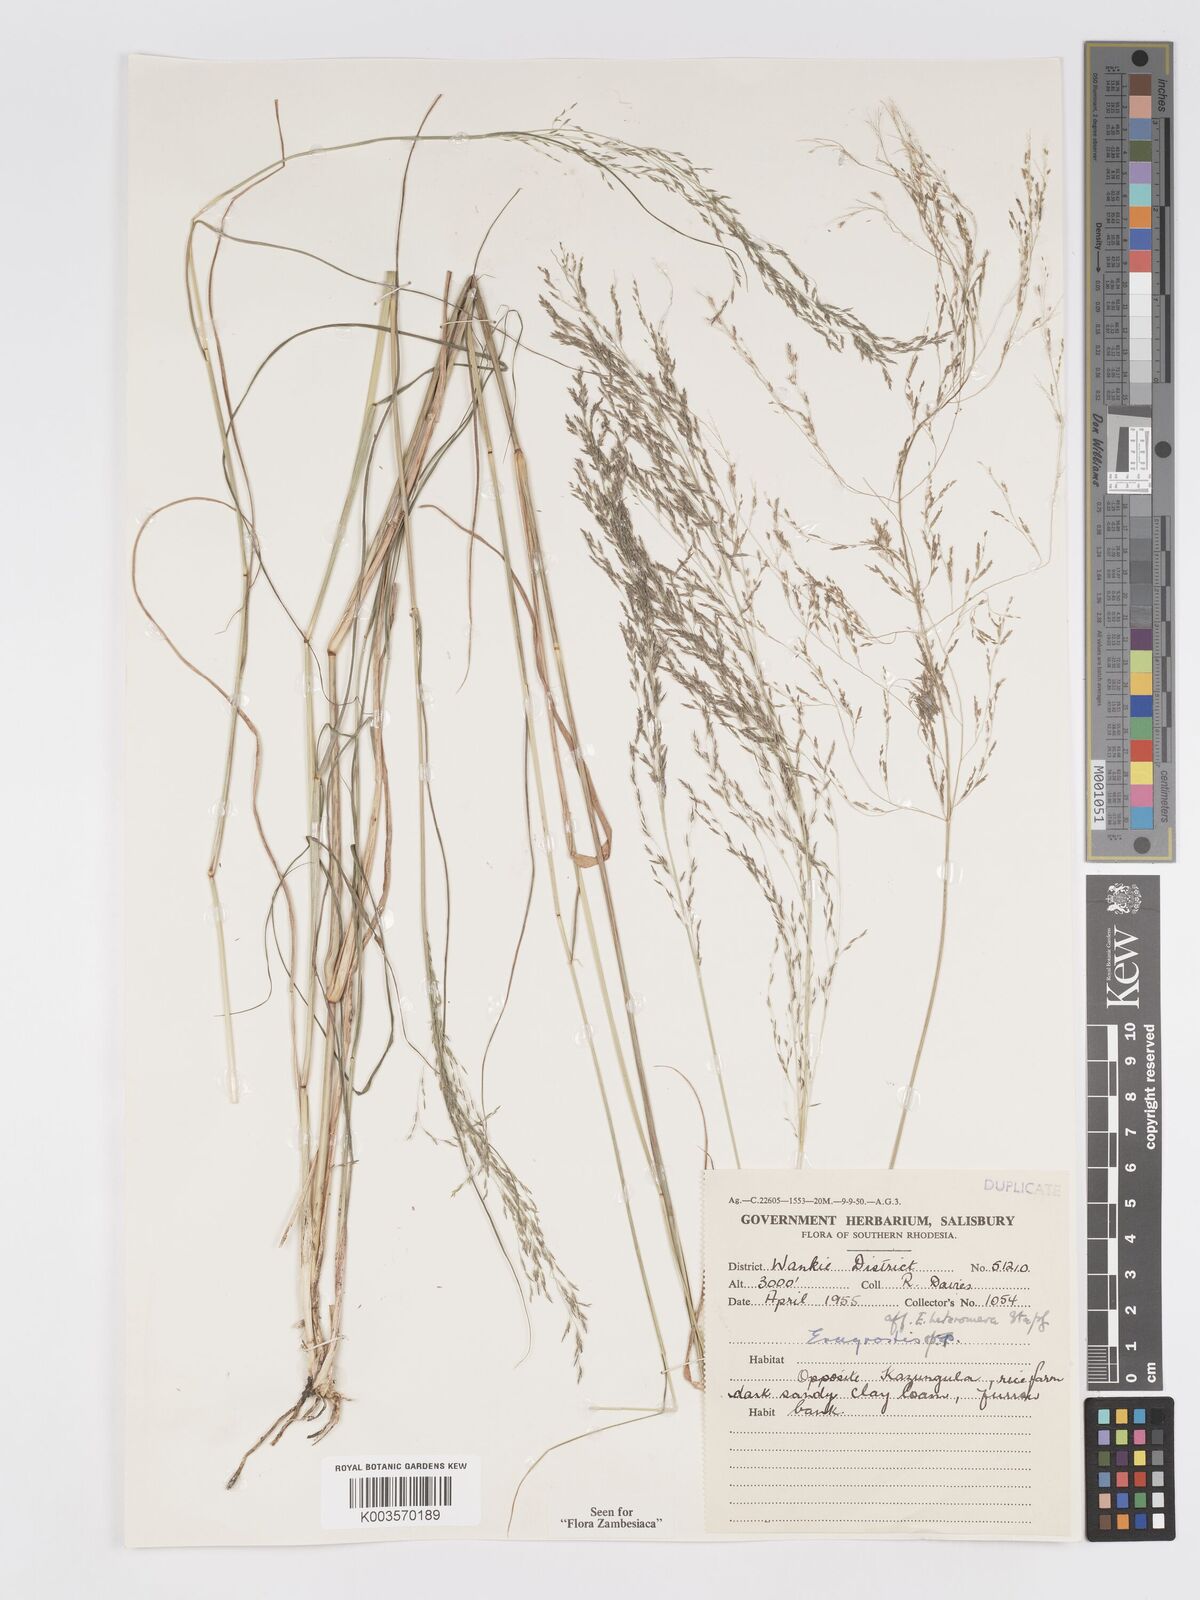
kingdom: Plantae
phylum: Tracheophyta
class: Liliopsida
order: Poales
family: Poaceae
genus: Eragrostis
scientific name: Eragrostis heteromera
